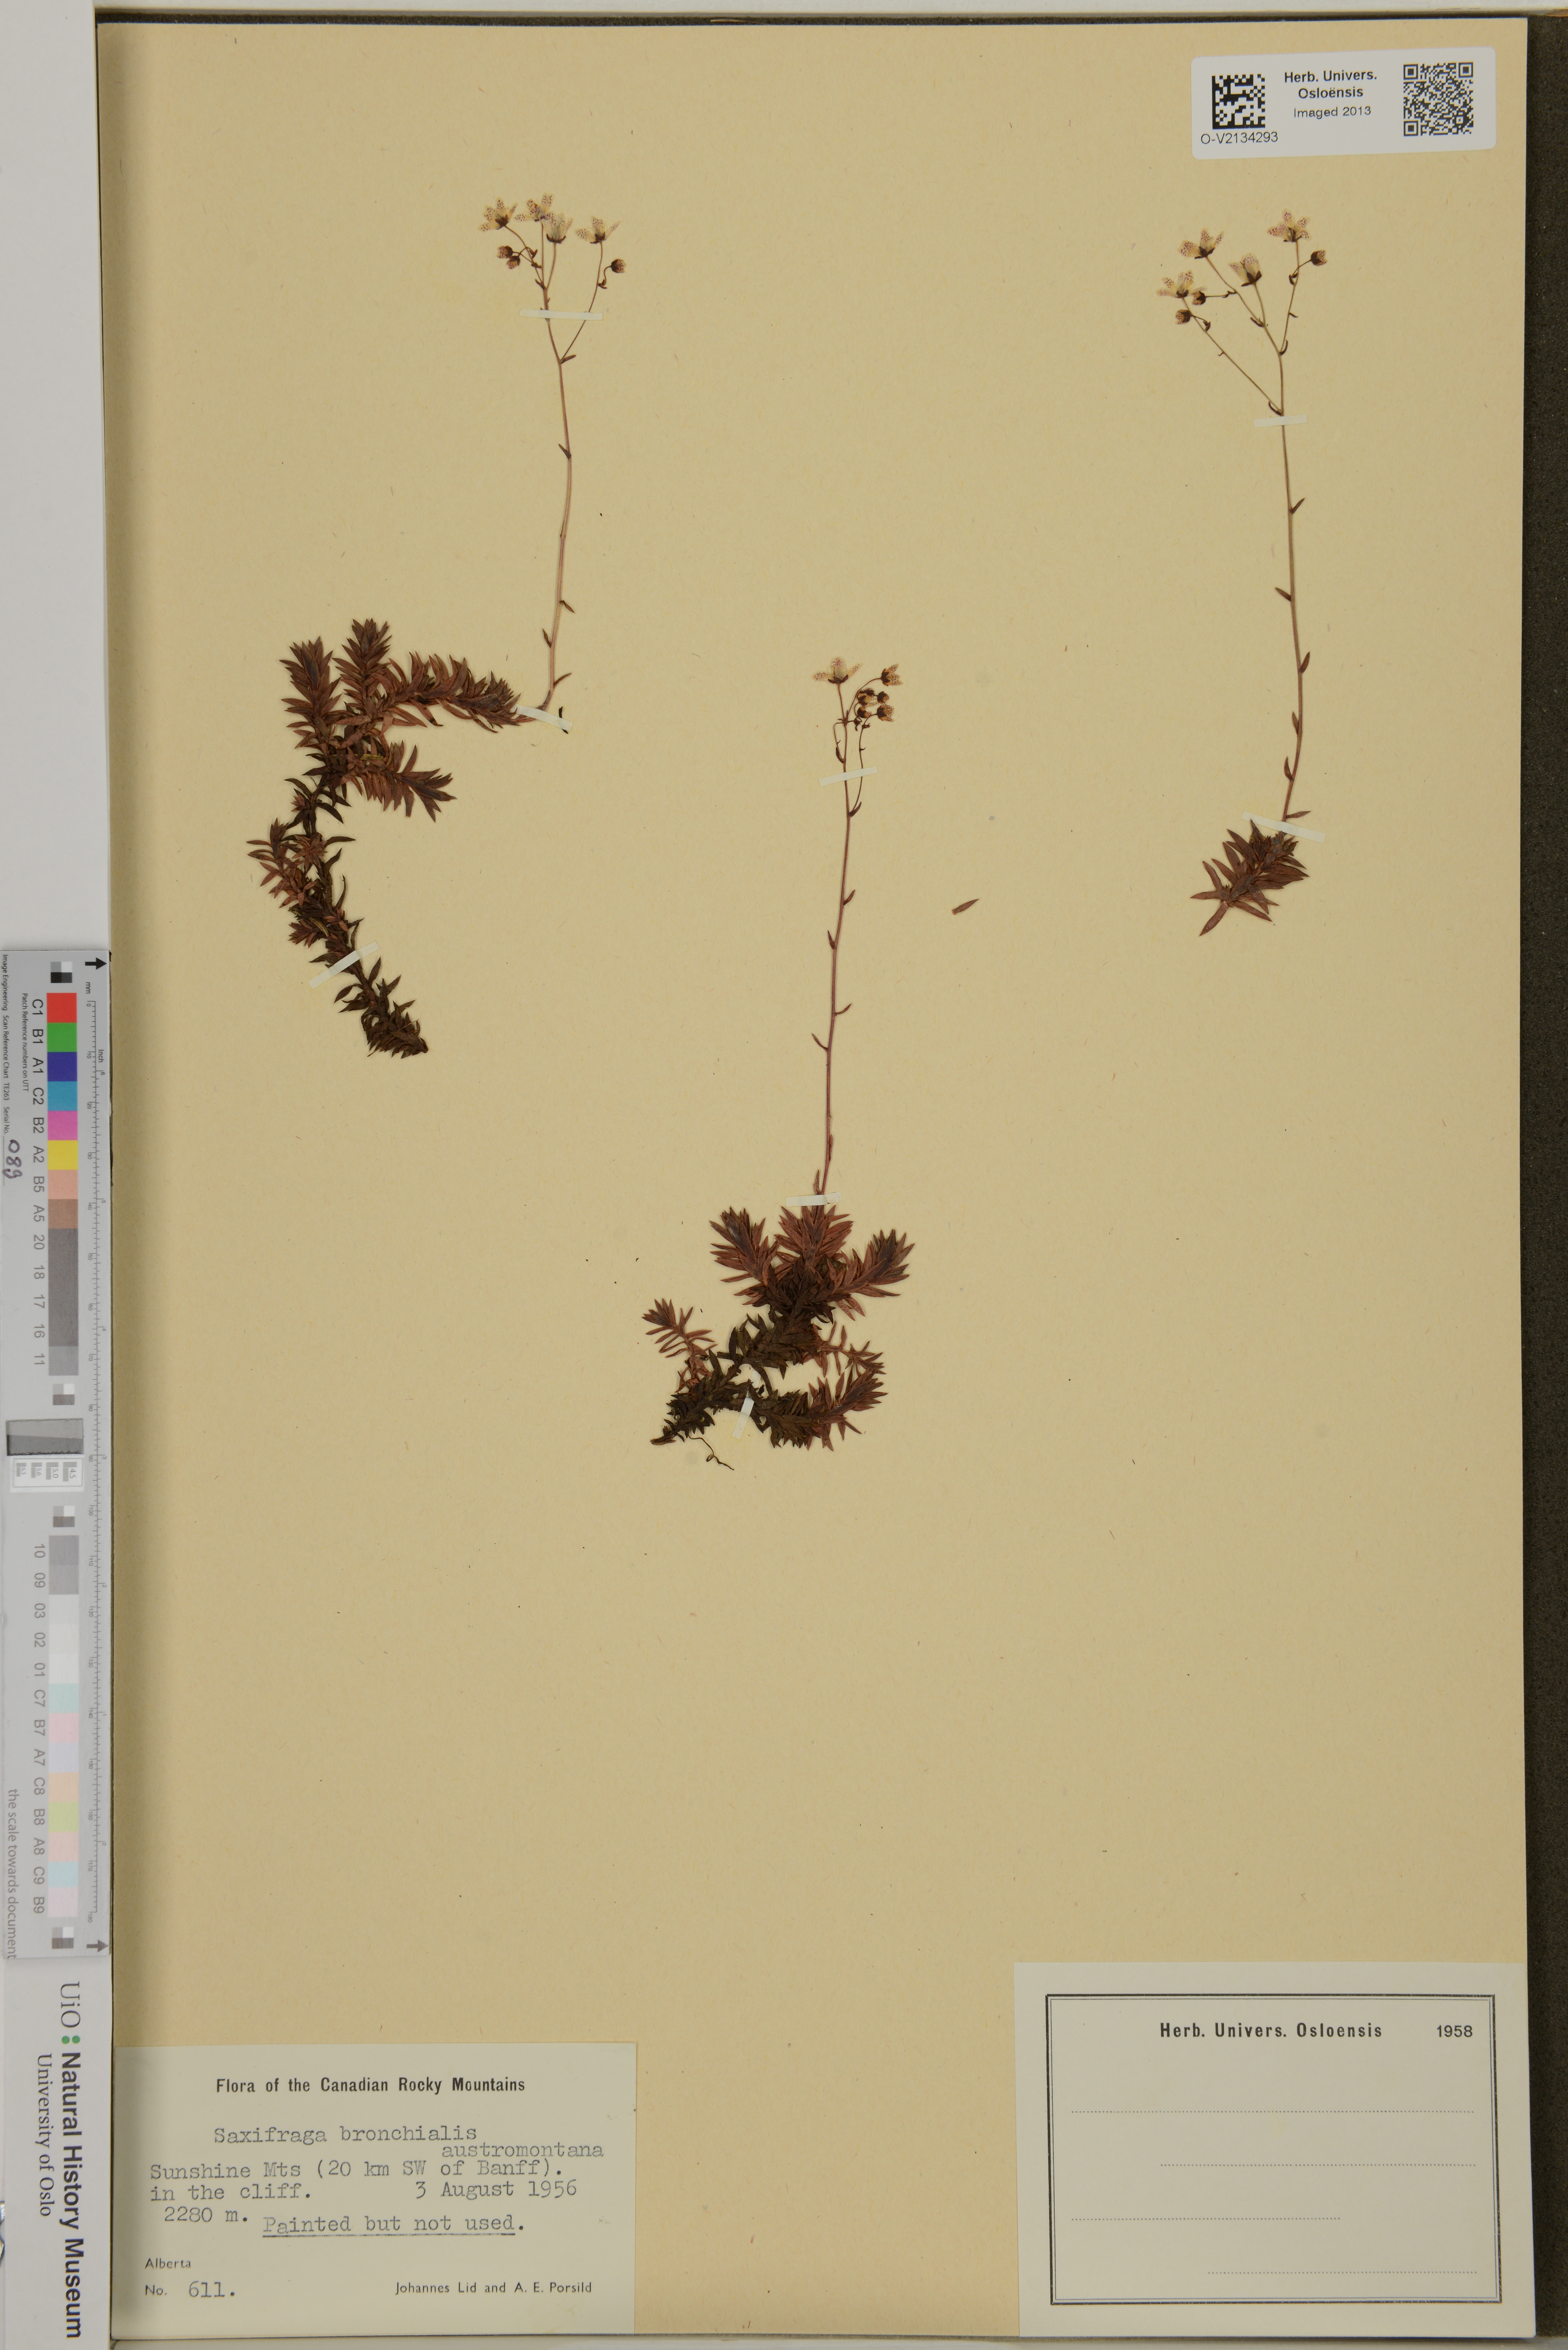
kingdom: Plantae
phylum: Tracheophyta
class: Magnoliopsida
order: Saxifragales
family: Saxifragaceae
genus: Saxifraga
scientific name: Saxifraga bronchialis
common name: Matted saxifrage
